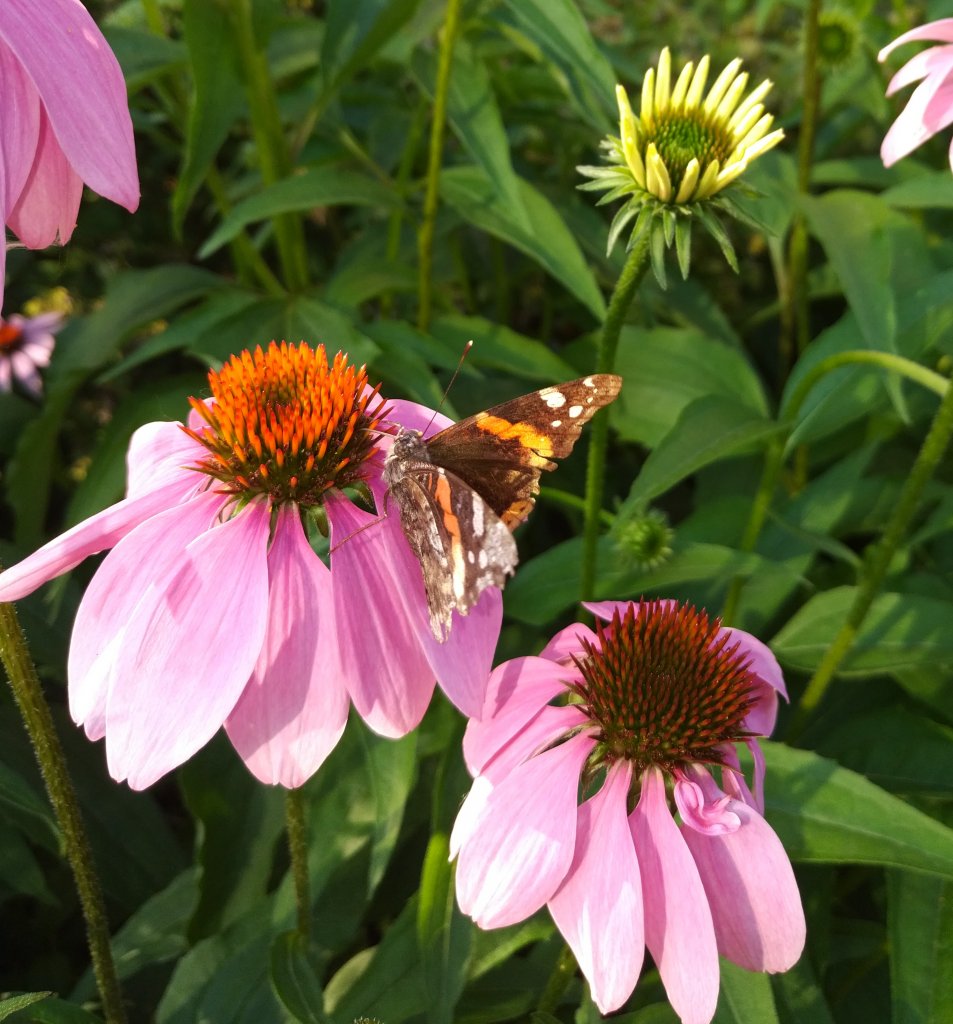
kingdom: Animalia
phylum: Arthropoda
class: Insecta
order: Lepidoptera
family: Nymphalidae
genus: Vanessa
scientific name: Vanessa atalanta
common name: Red Admiral
